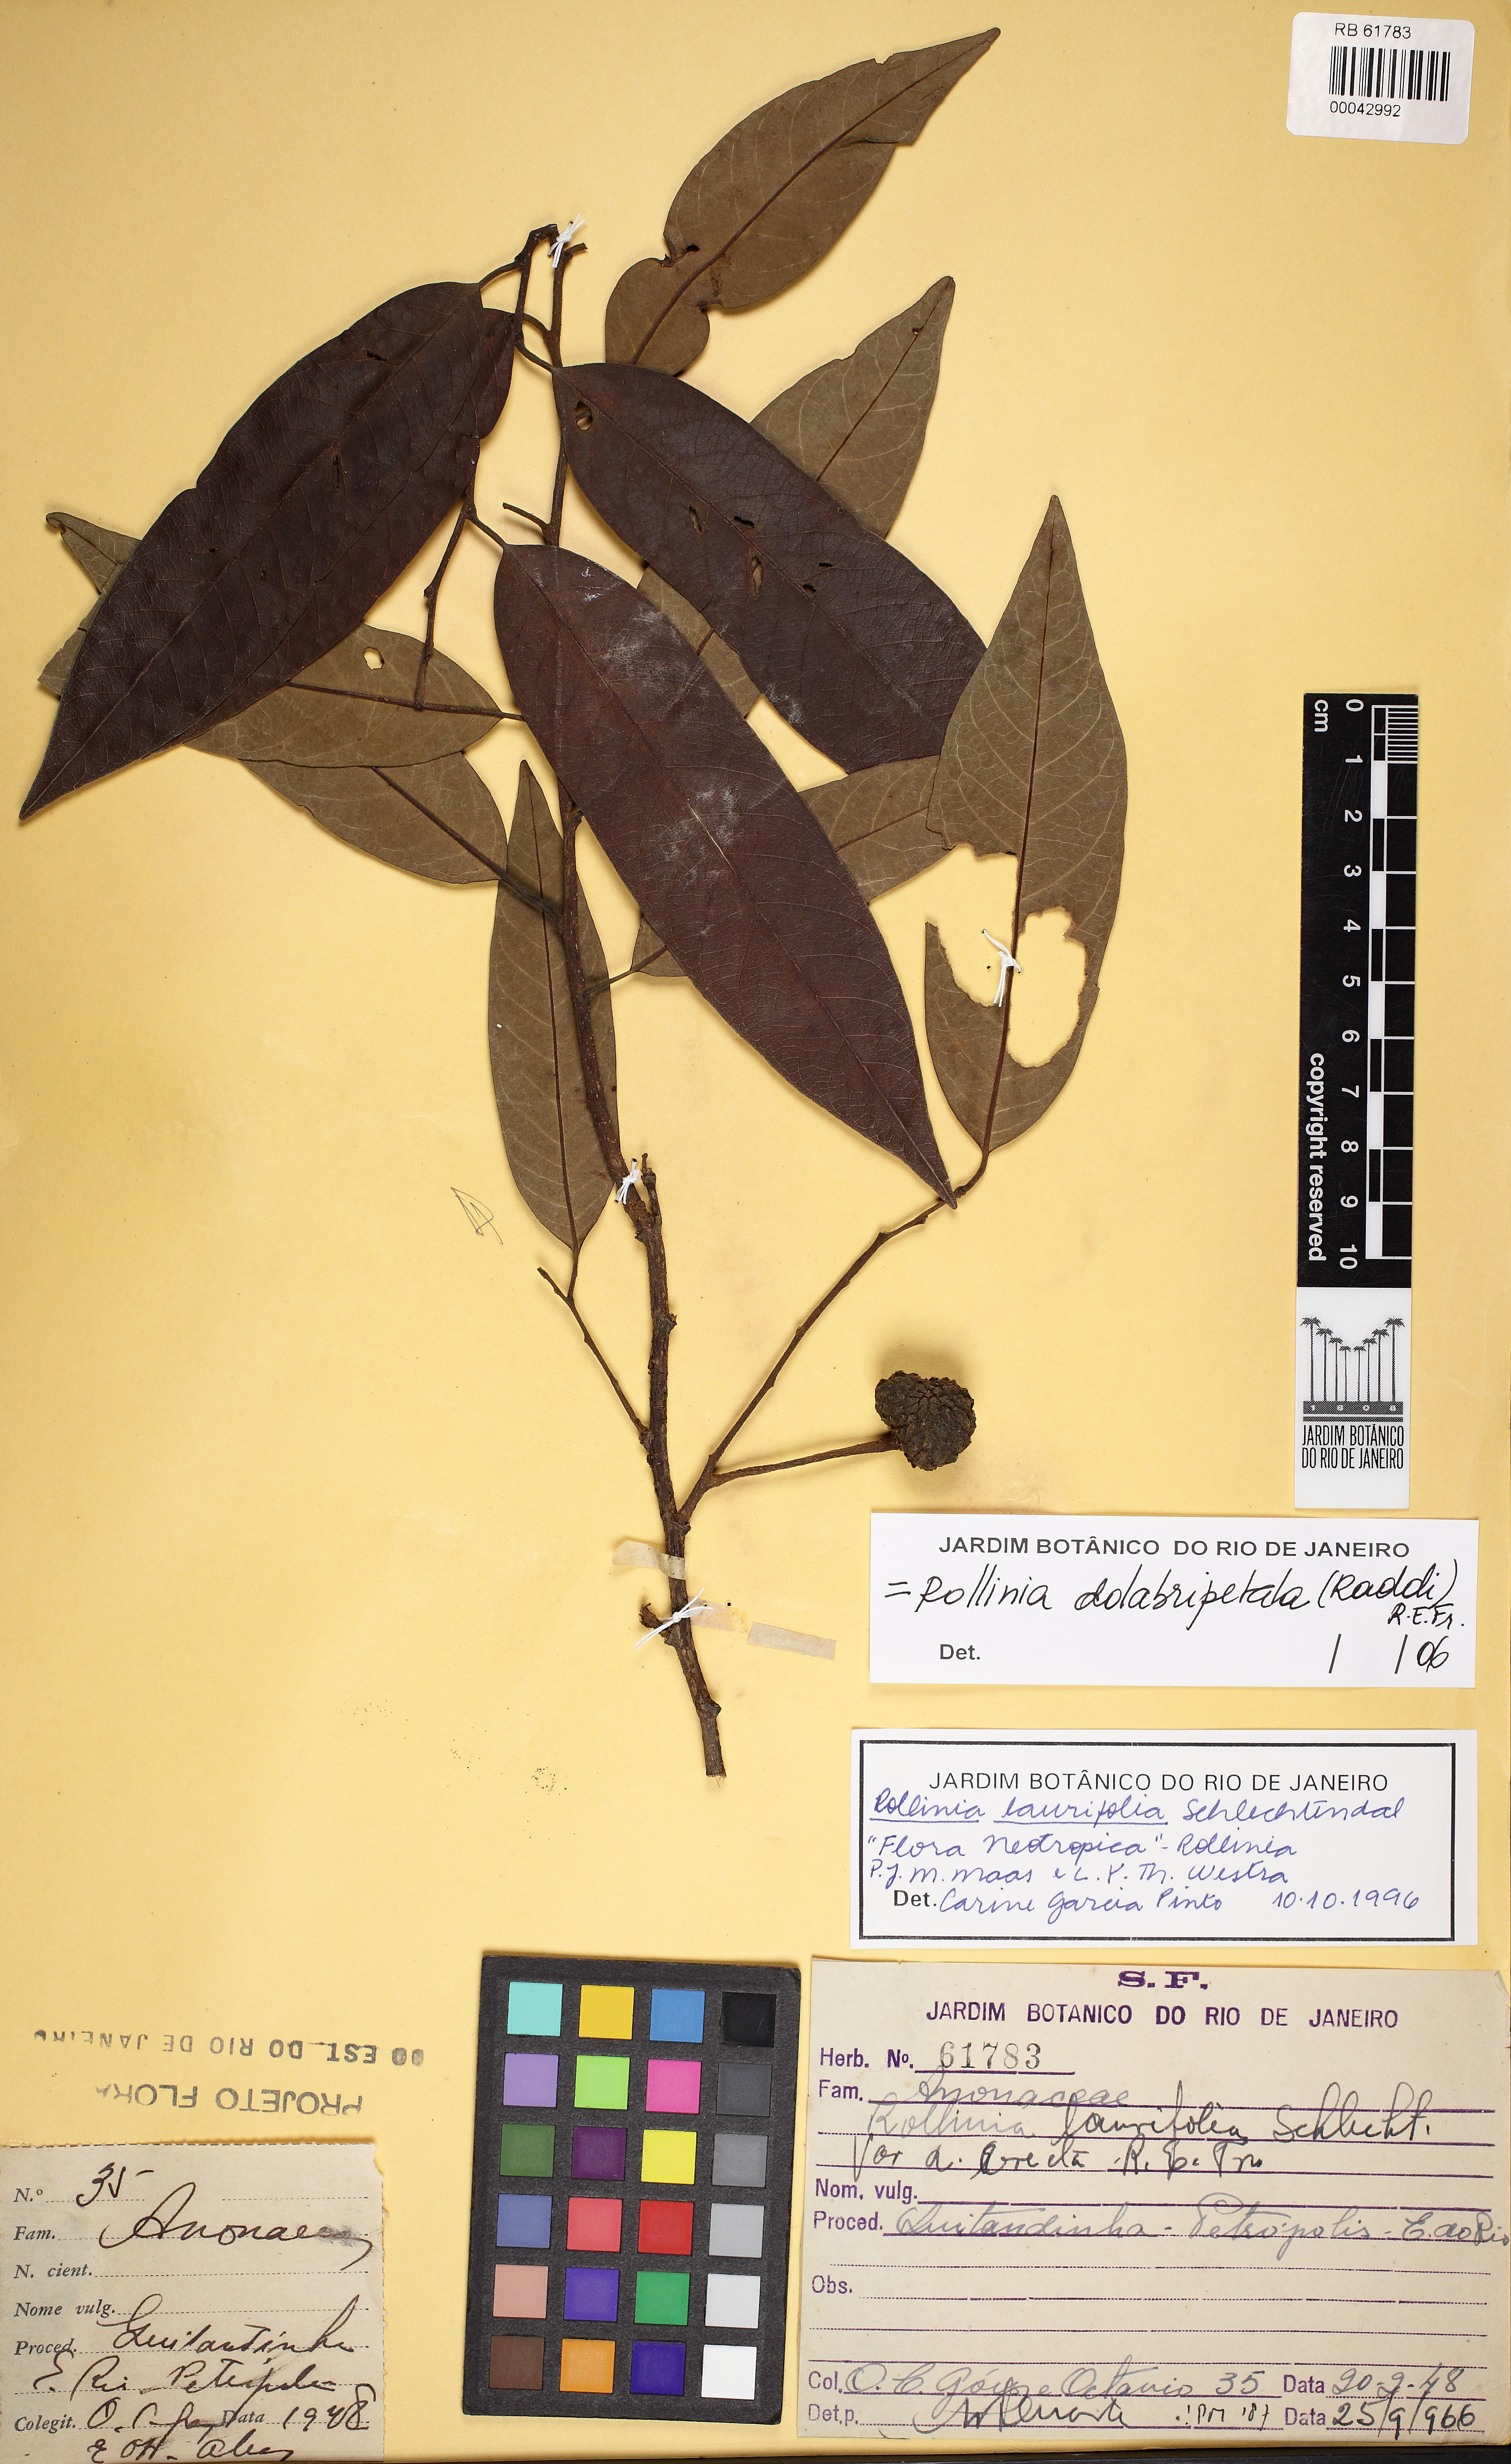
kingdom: Plantae
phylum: Tracheophyta
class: Magnoliopsida
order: Magnoliales
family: Annonaceae
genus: Annona
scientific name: Annona dolabripetala
